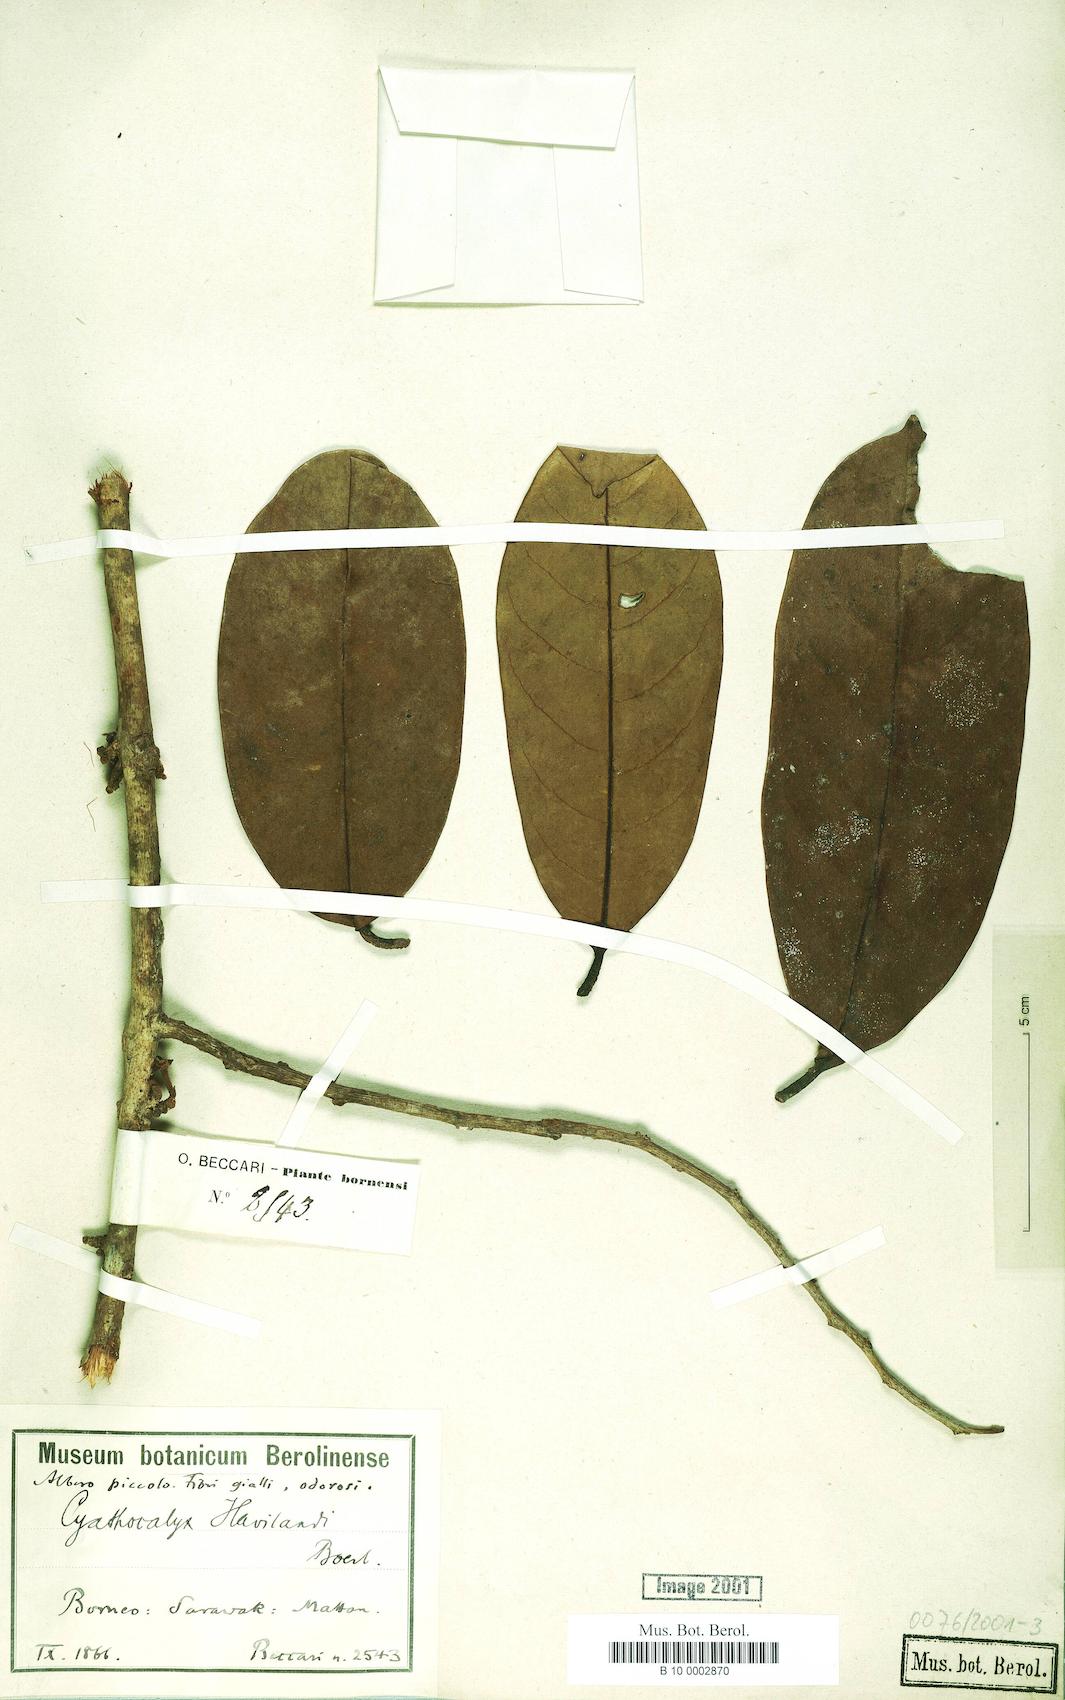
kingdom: Plantae
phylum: Tracheophyta
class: Magnoliopsida
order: Magnoliales
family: Annonaceae
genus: Drepananthus
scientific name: Drepananthus havilandii
